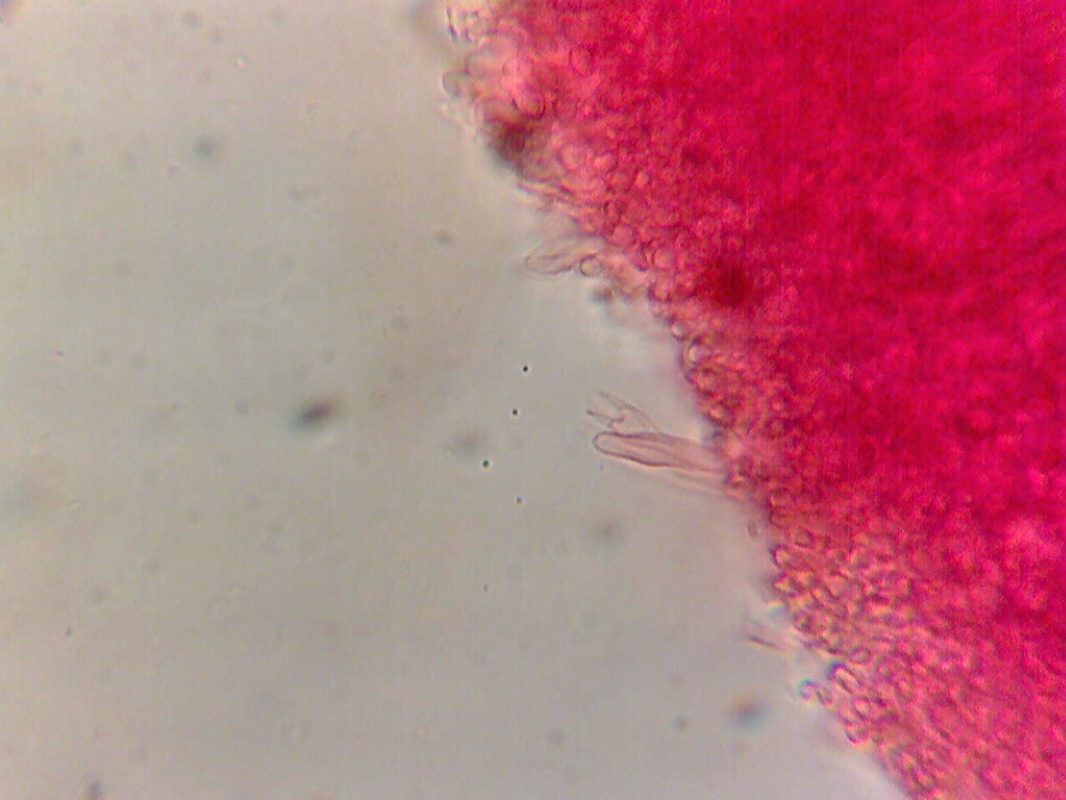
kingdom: Fungi
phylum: Basidiomycota
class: Agaricomycetes
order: Polyporales
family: Meruliaceae
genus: Cytidiella
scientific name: Cytidiella albida
